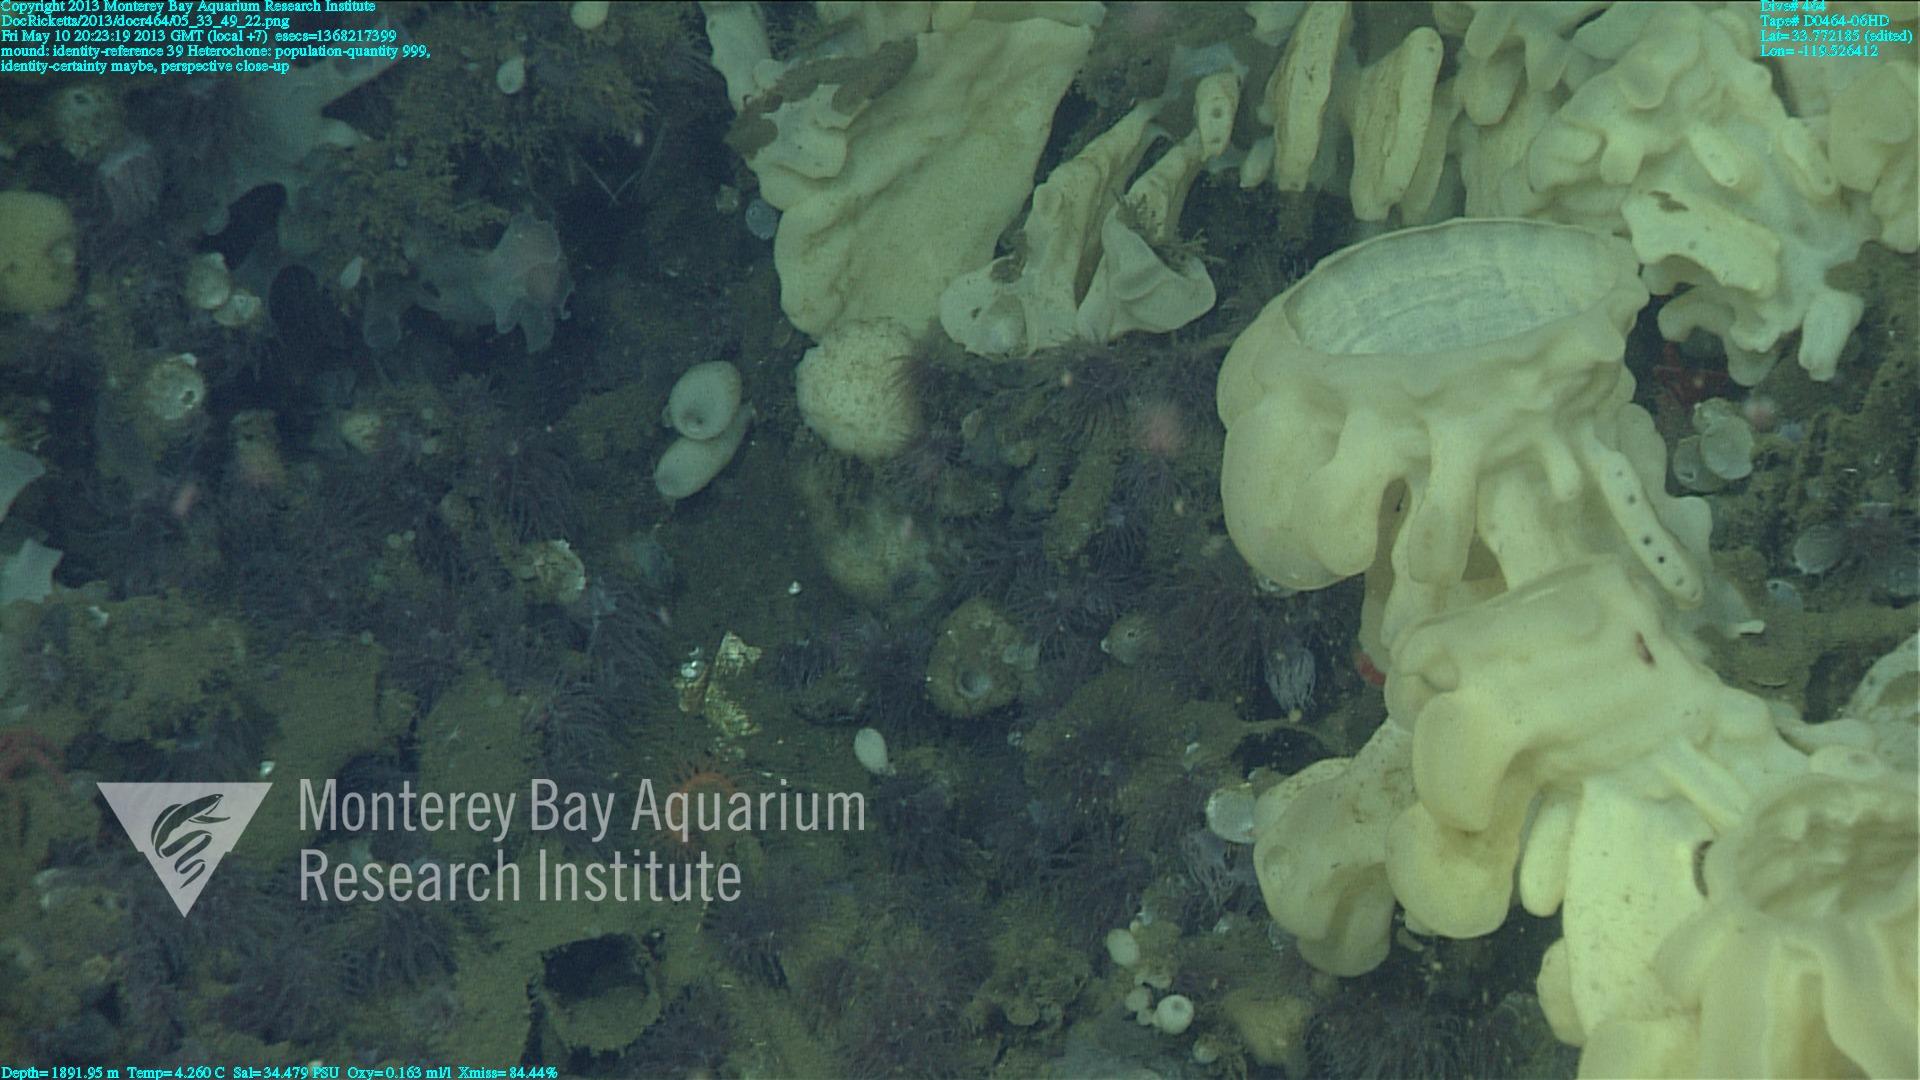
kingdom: Animalia
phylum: Porifera
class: Hexactinellida
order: Sceptrulophora
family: Aphrocallistidae
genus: Heterochone
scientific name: Heterochone
